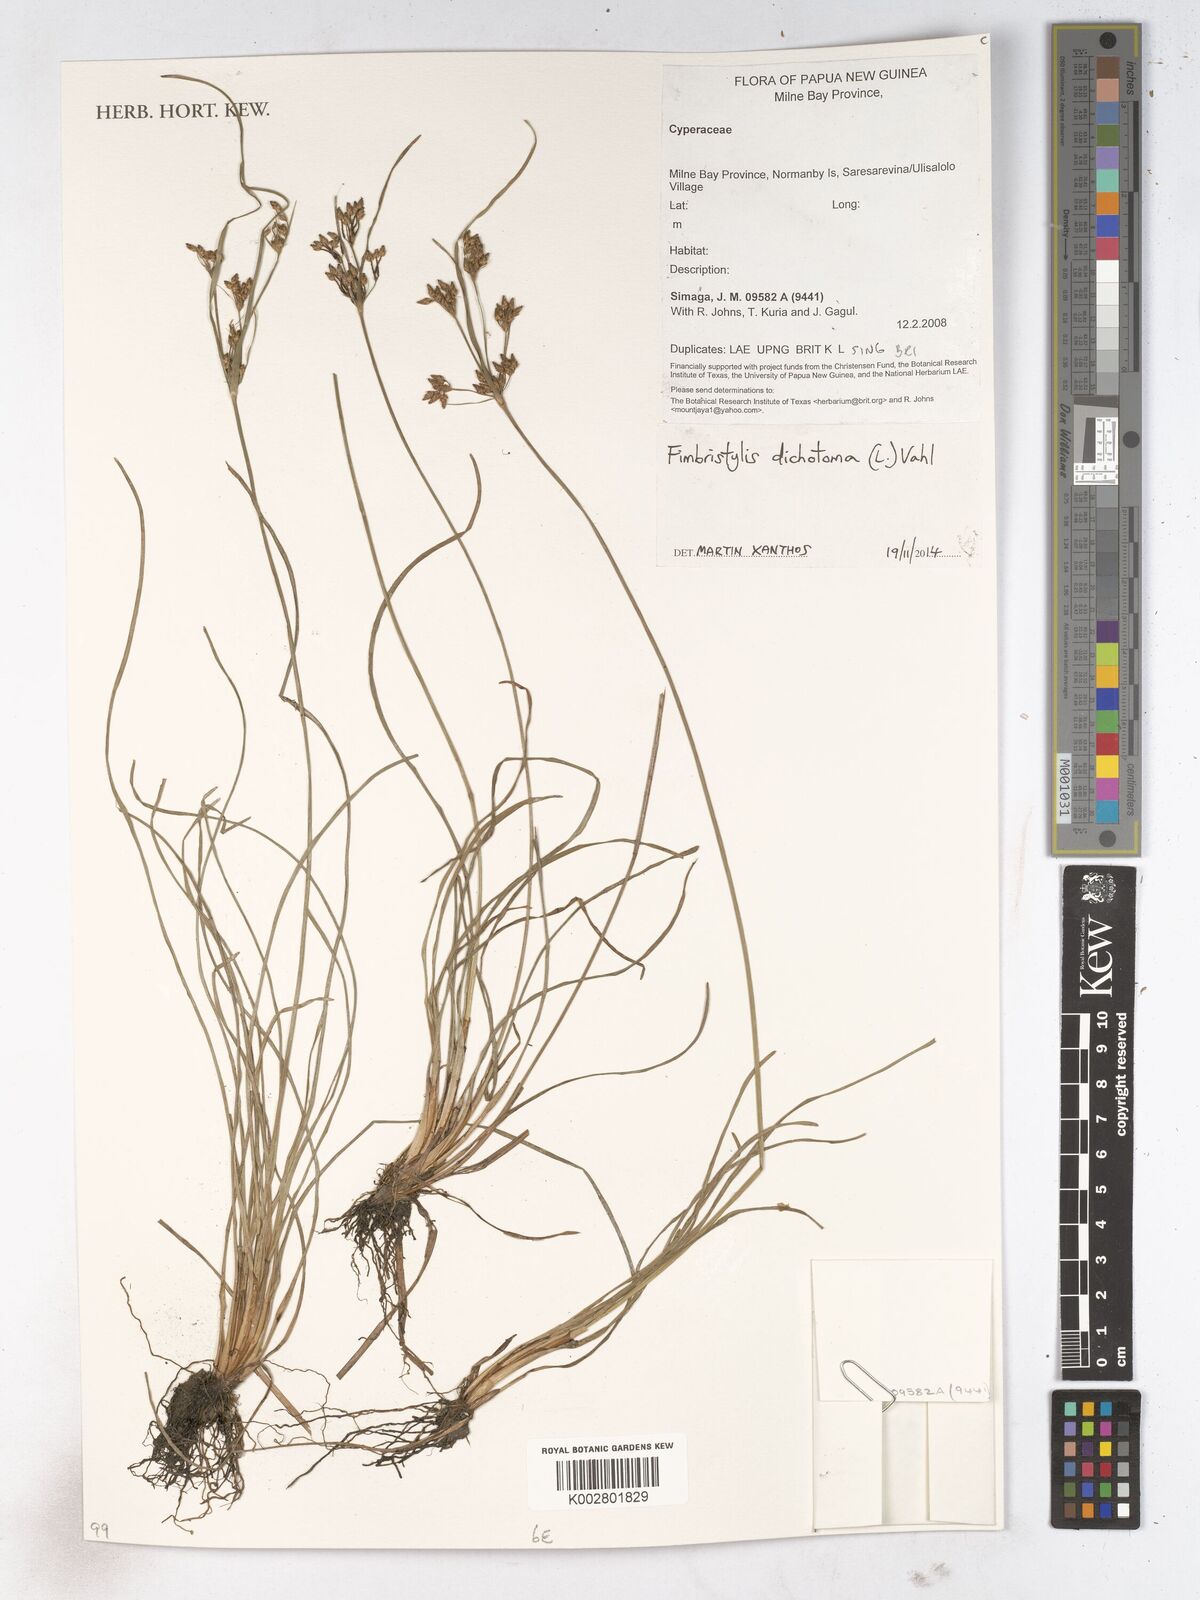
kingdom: Plantae
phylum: Tracheophyta
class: Liliopsida
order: Poales
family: Cyperaceae
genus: Fimbristylis
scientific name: Fimbristylis dichotoma
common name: Forked fimbry
